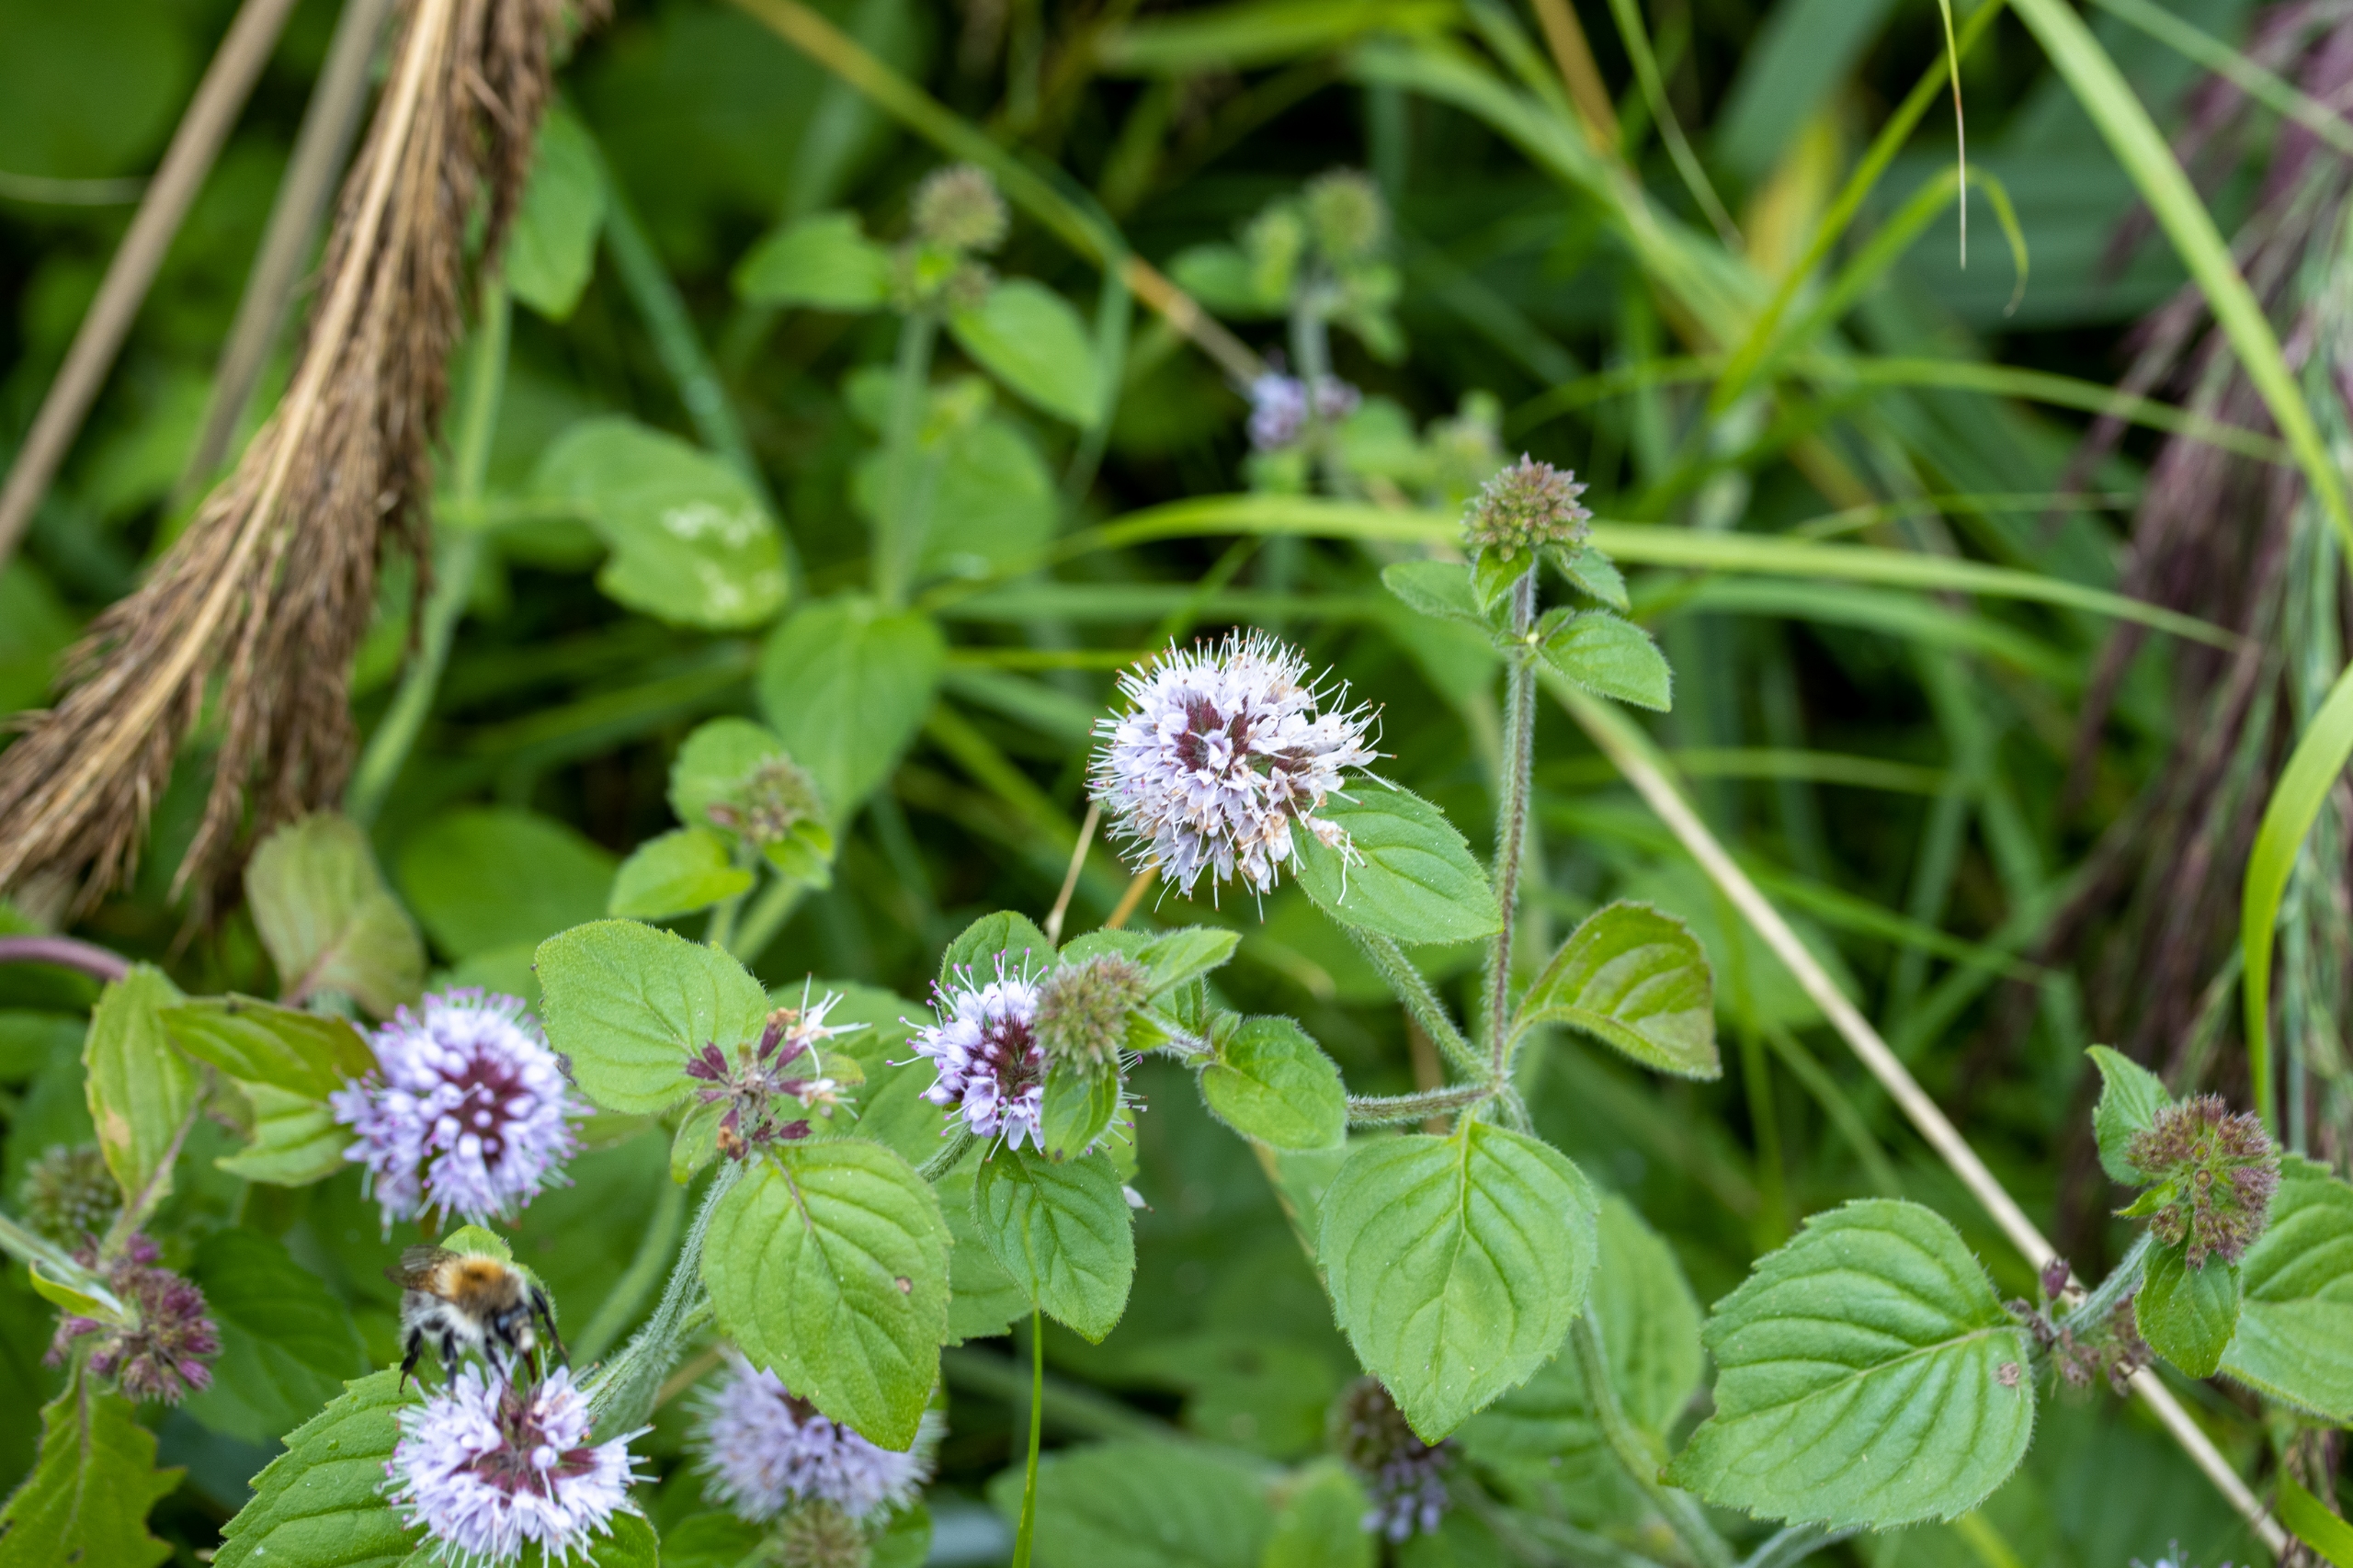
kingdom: Plantae
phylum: Tracheophyta
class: Magnoliopsida
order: Lamiales
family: Lamiaceae
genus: Mentha
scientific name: Mentha aquatica
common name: Vand-mynte
